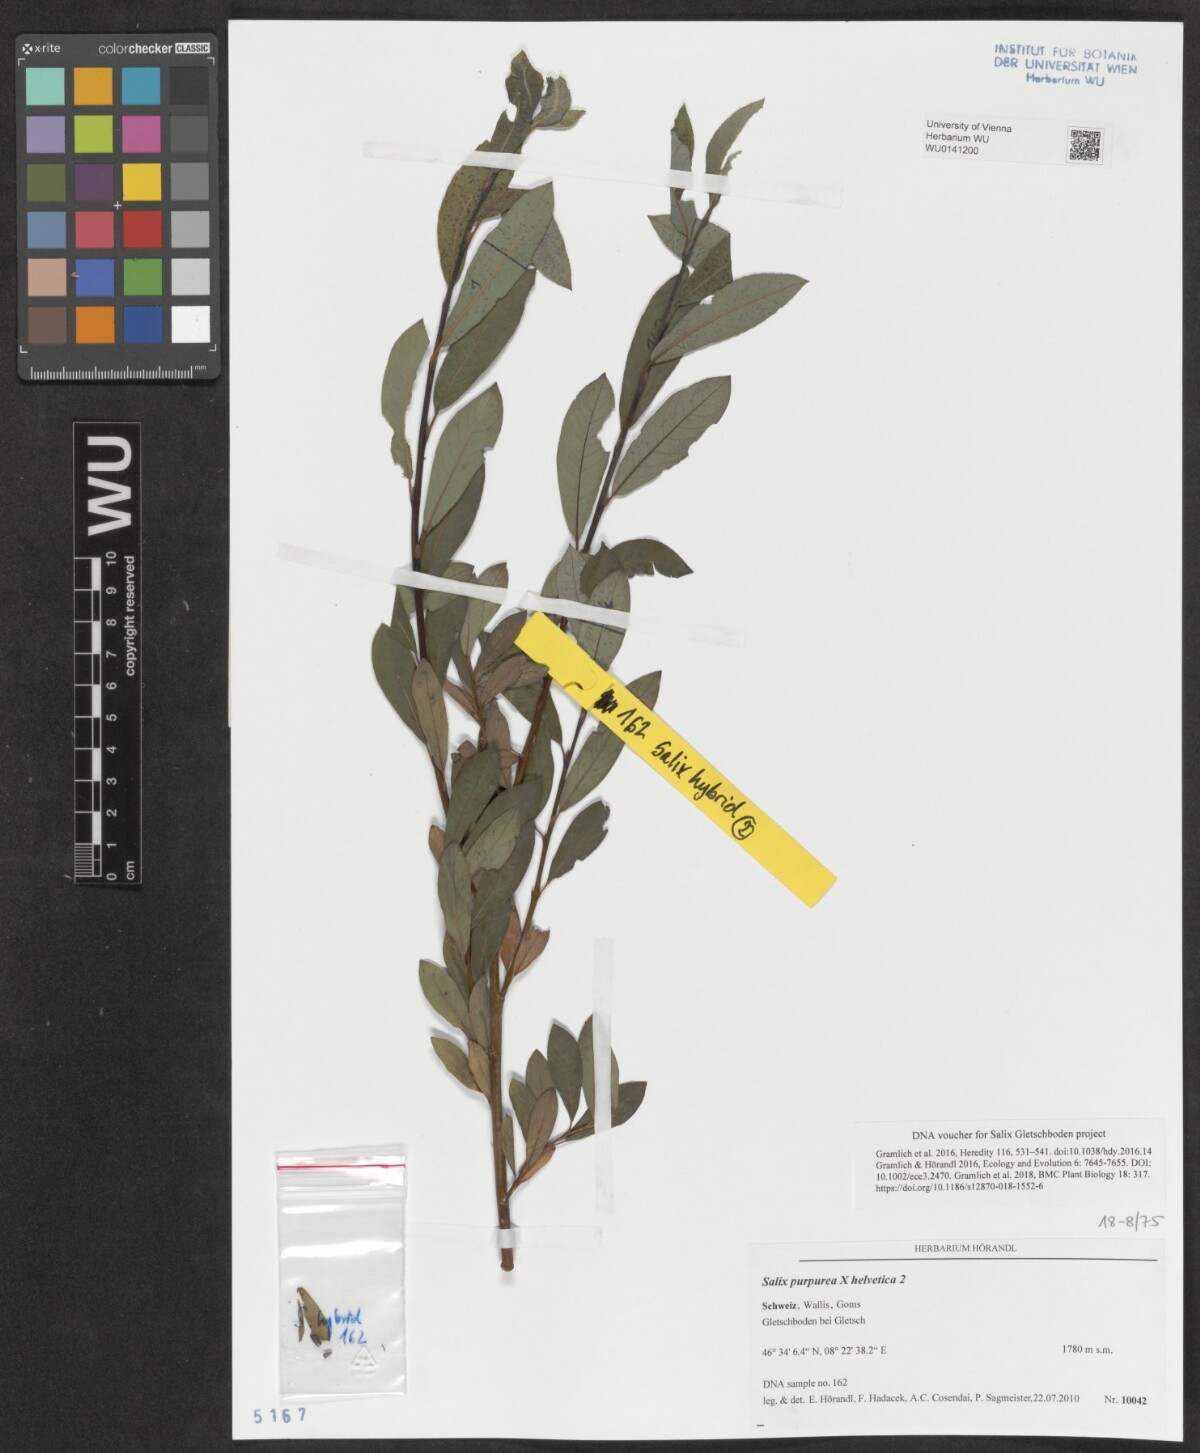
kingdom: Plantae
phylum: Tracheophyta
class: Magnoliopsida
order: Malpighiales
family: Salicaceae
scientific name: Salicaceae
